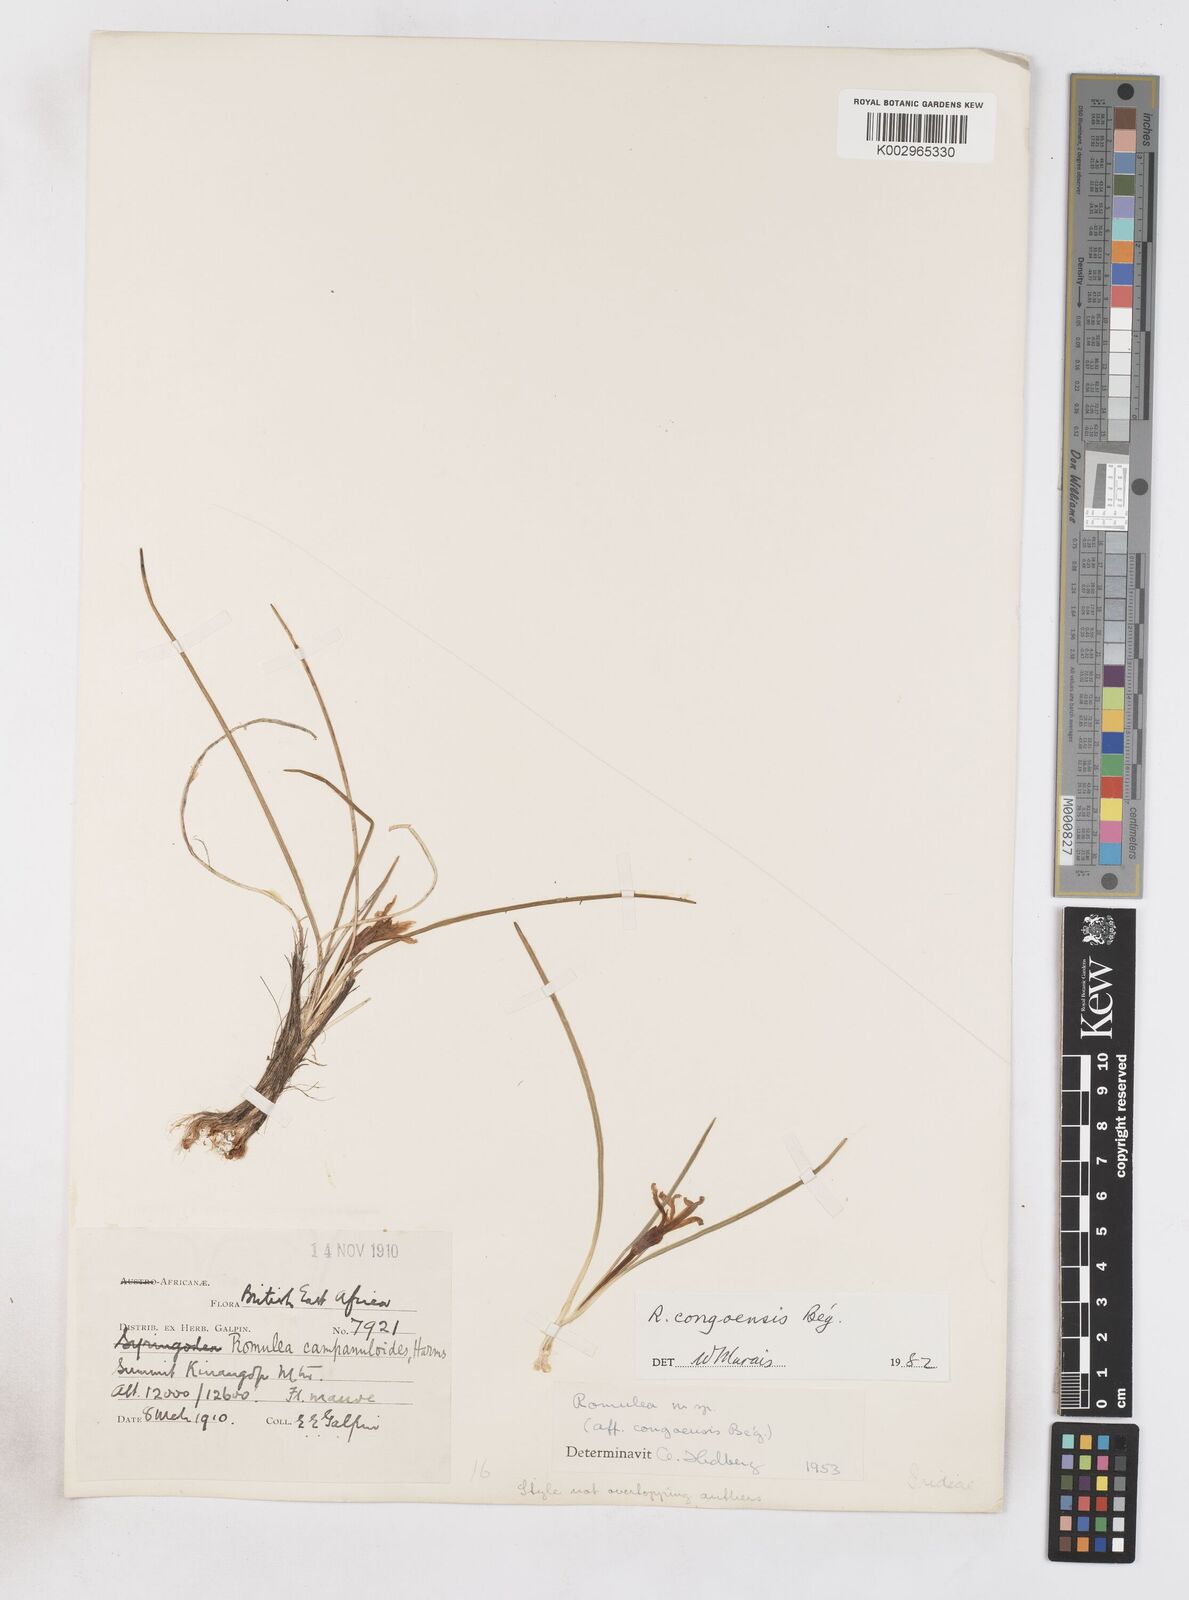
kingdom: Plantae
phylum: Tracheophyta
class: Liliopsida
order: Asparagales
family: Iridaceae
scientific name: Iridaceae
